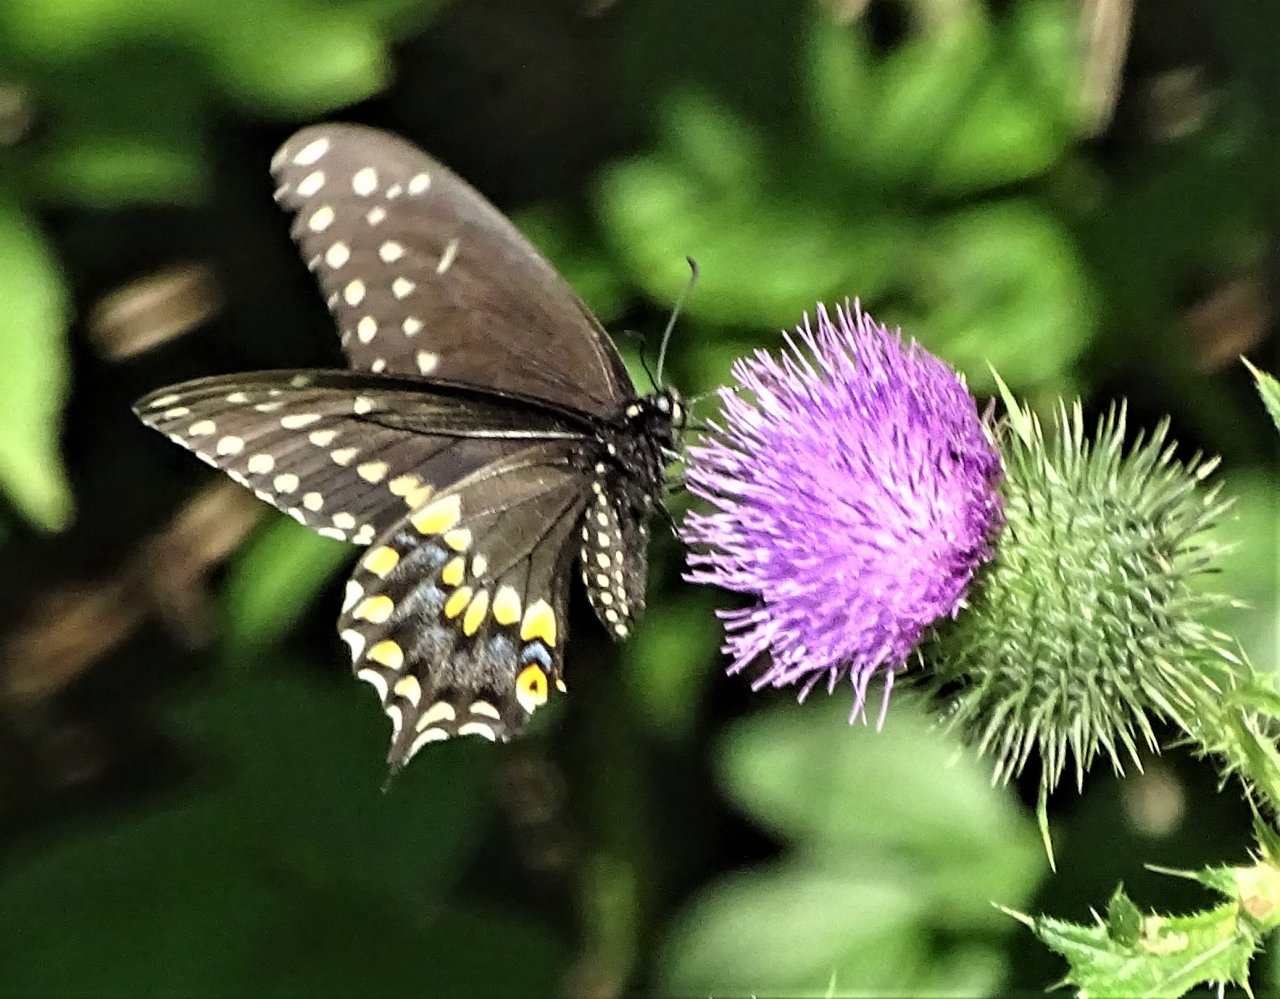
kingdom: Animalia
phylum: Arthropoda
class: Insecta
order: Lepidoptera
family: Papilionidae
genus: Papilio
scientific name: Papilio polyxenes
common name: Black Swallowtail
